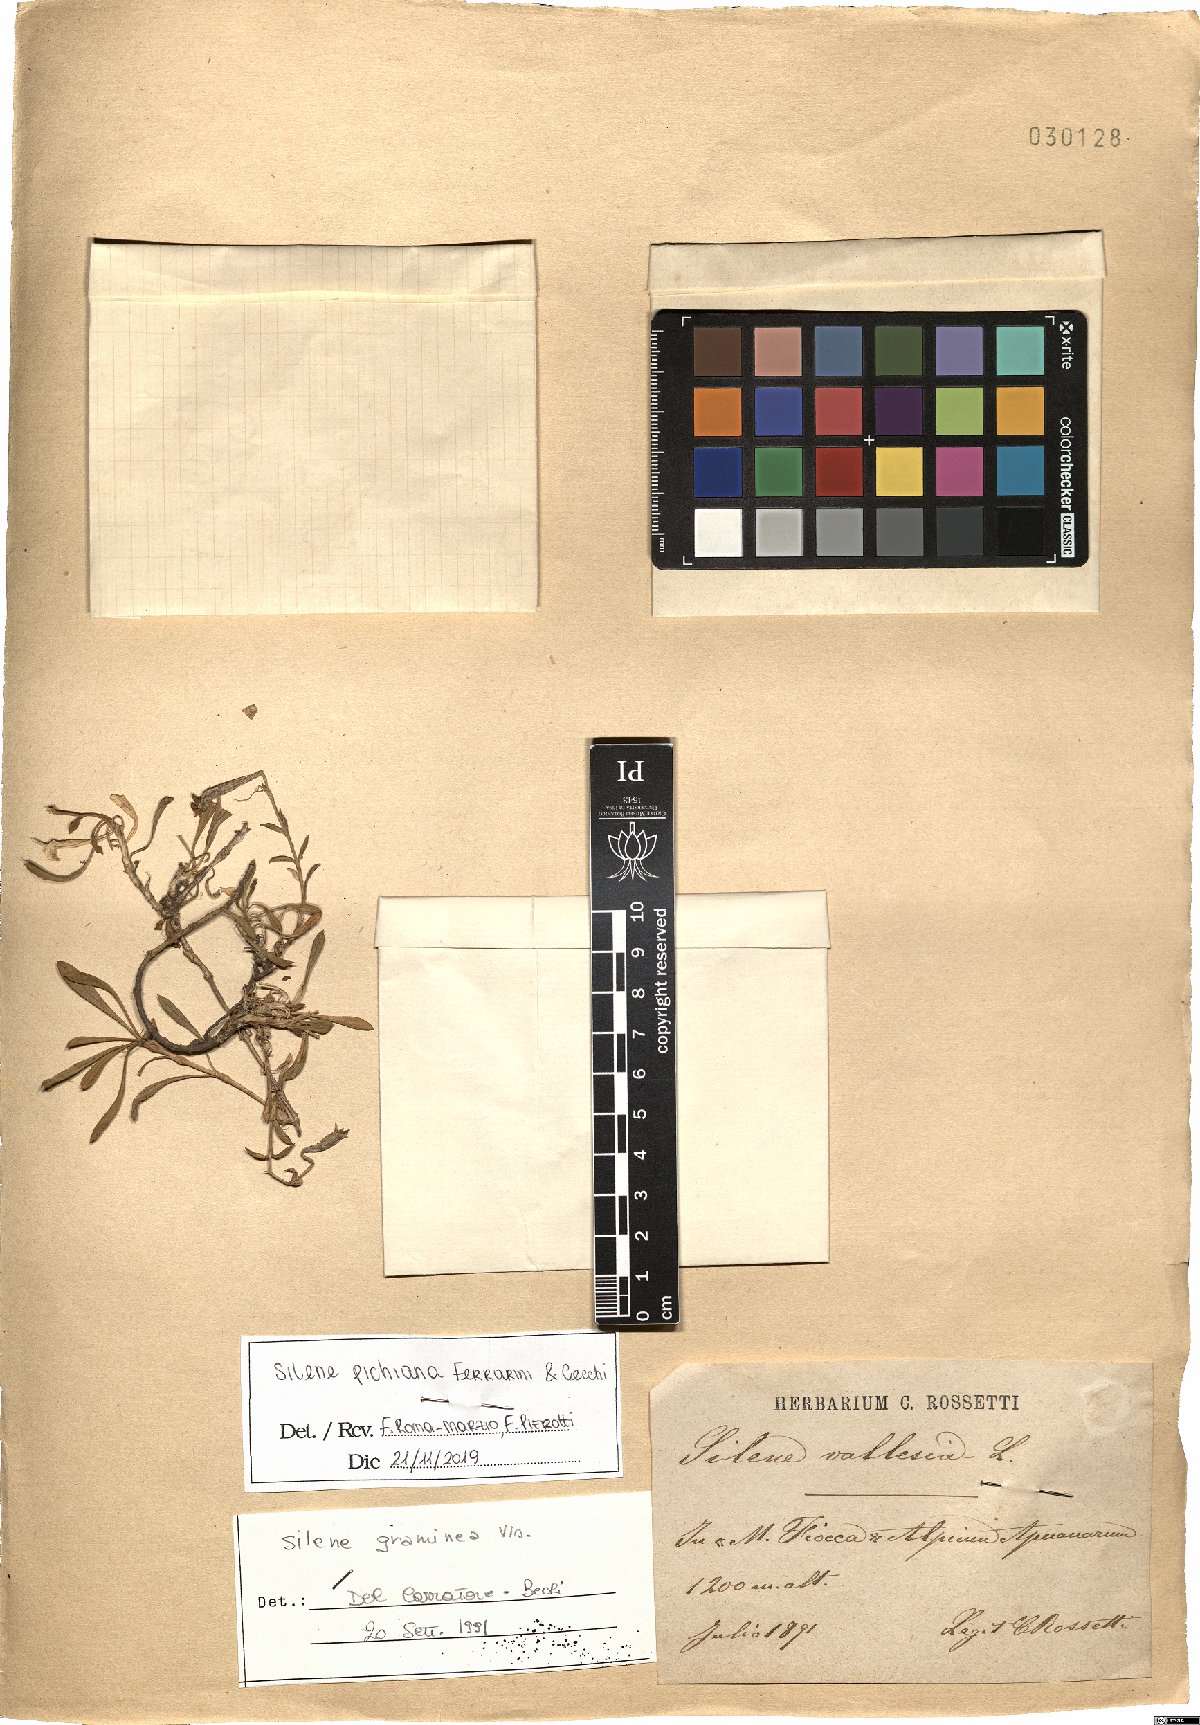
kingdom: Plantae
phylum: Tracheophyta
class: Magnoliopsida
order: Caryophyllales
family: Caryophyllaceae
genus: Silene
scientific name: Silene pichiana
